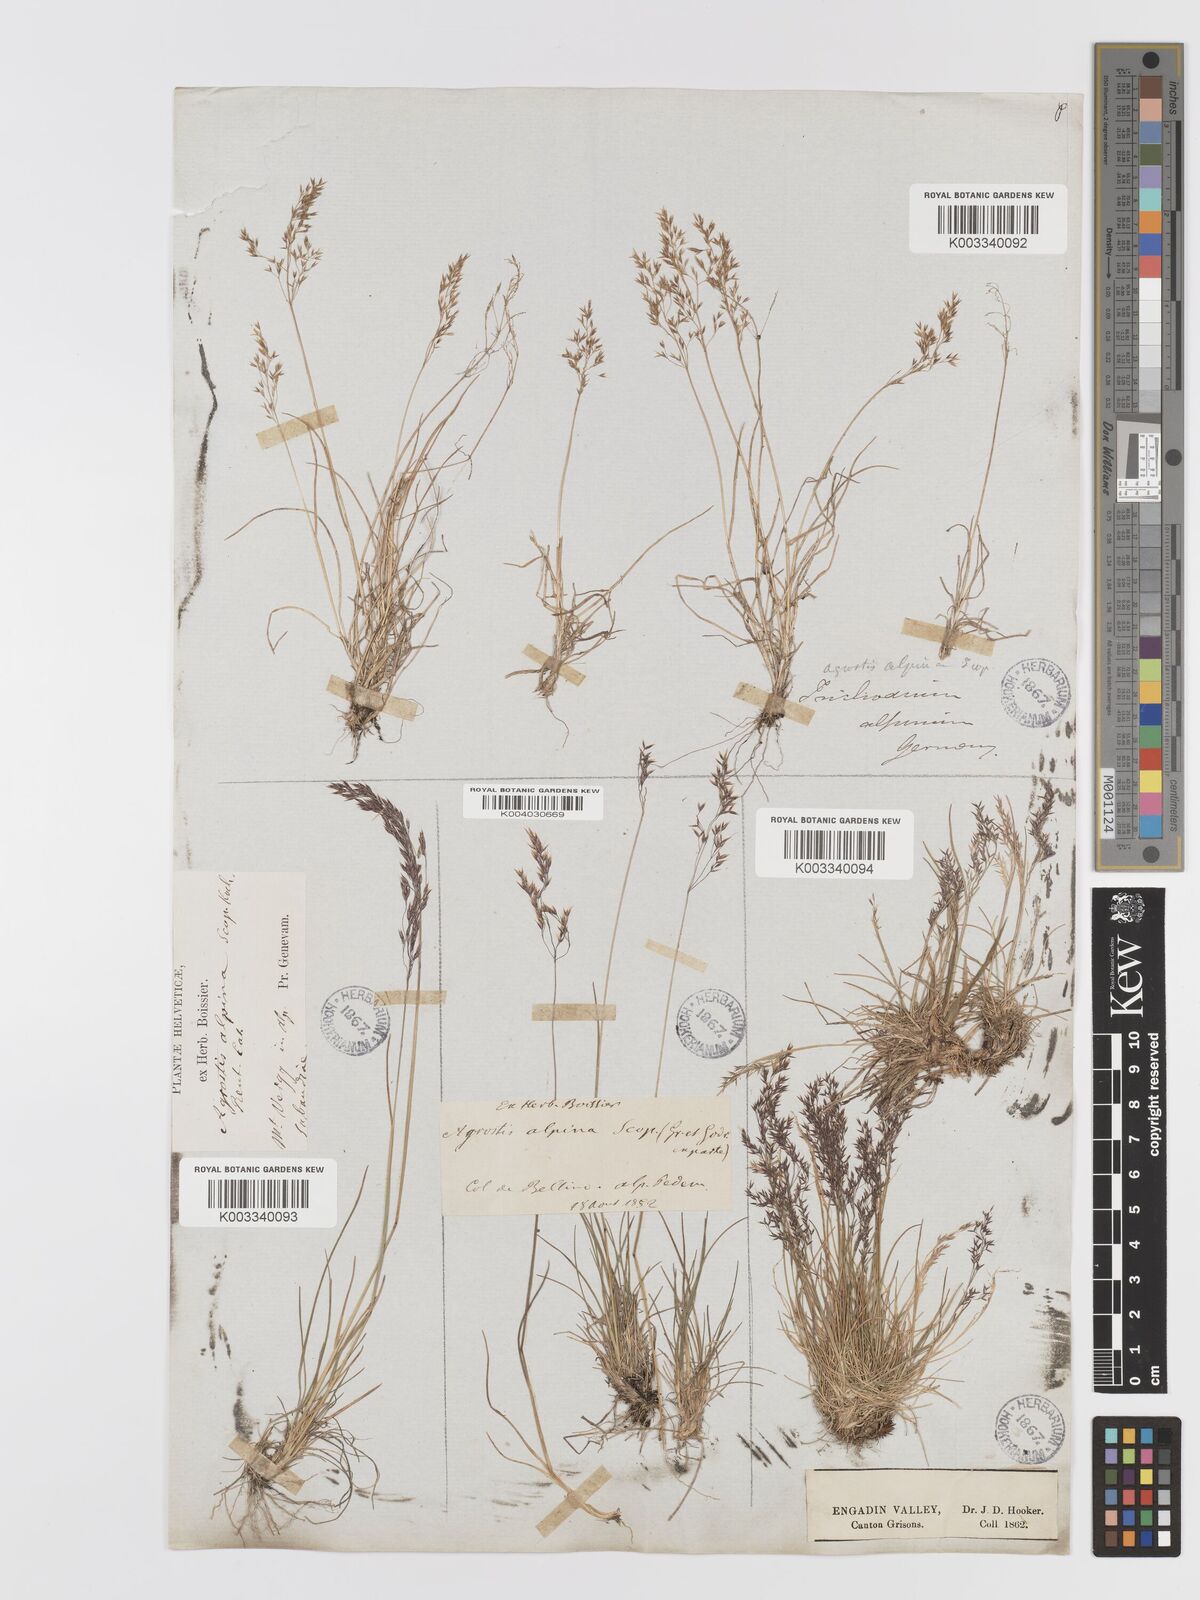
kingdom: Plantae
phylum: Tracheophyta
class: Liliopsida
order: Poales
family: Poaceae
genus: Agrostis
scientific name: Agrostis rupestris
